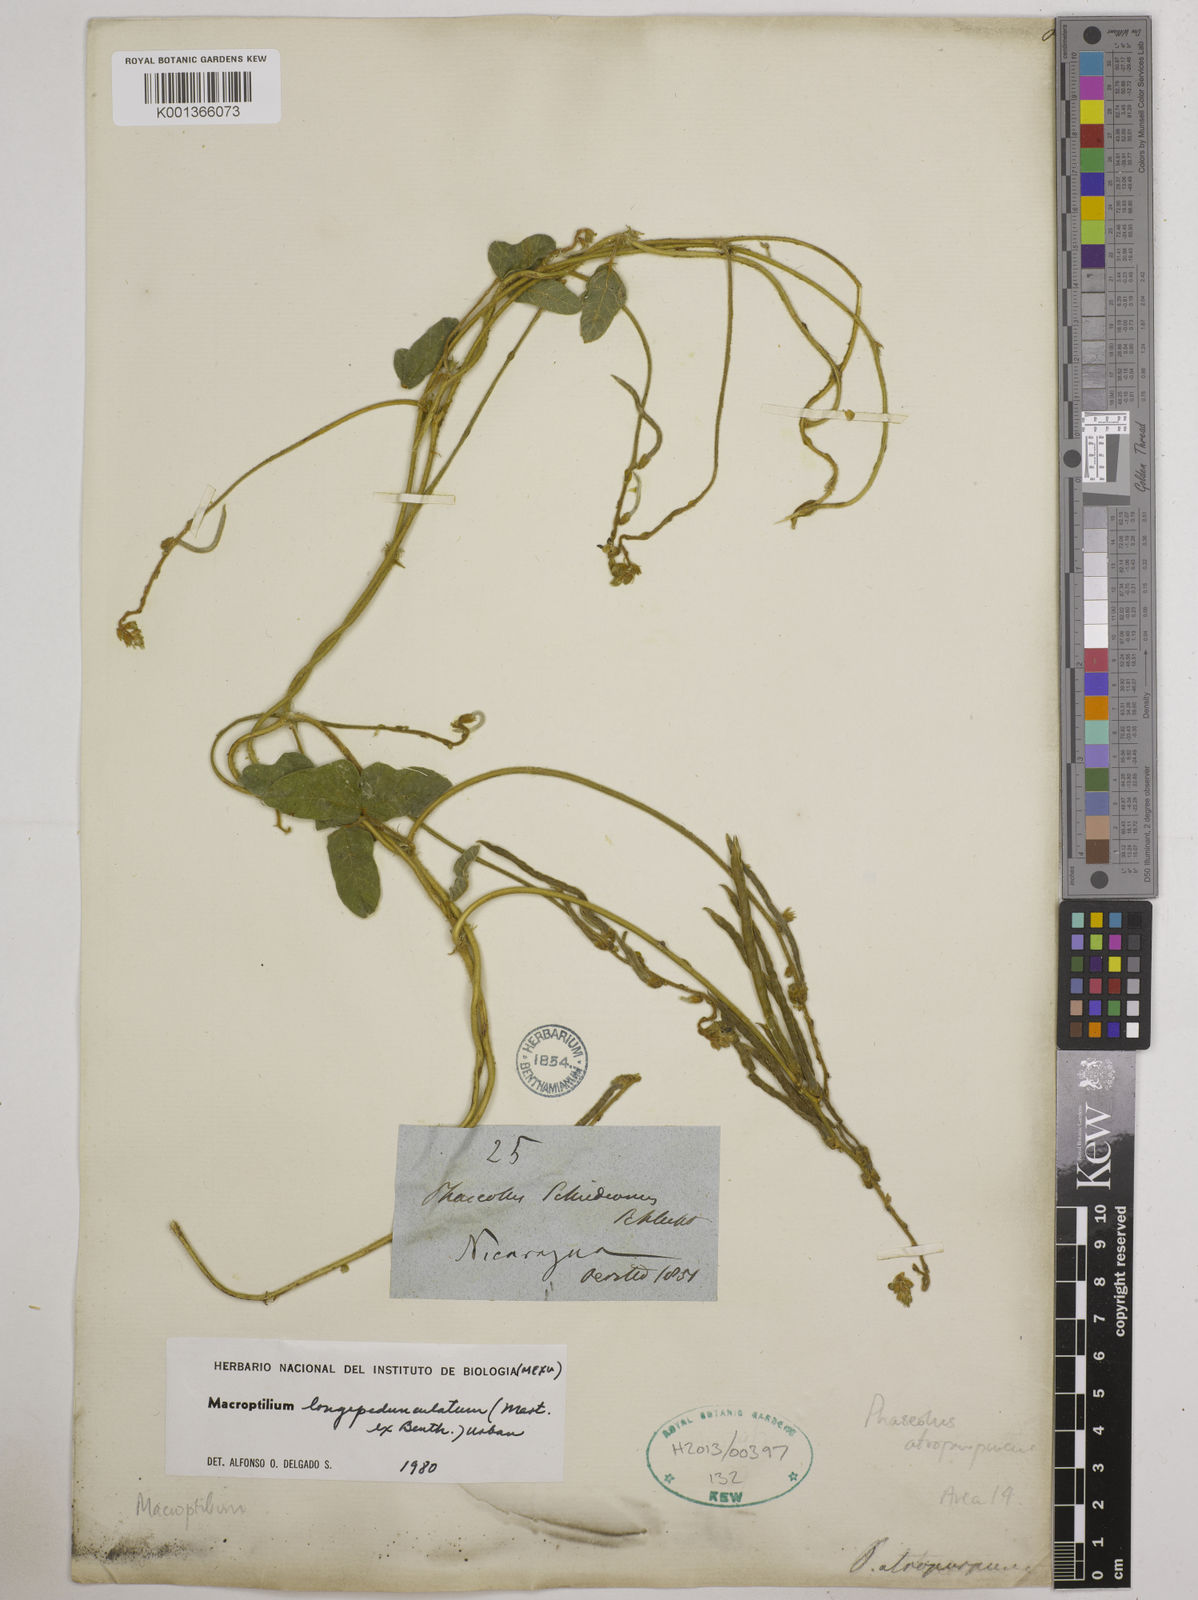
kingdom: Plantae
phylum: Tracheophyta
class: Magnoliopsida
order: Fabales
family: Fabaceae
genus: Macroptilium
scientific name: Macroptilium longepedunculatum
